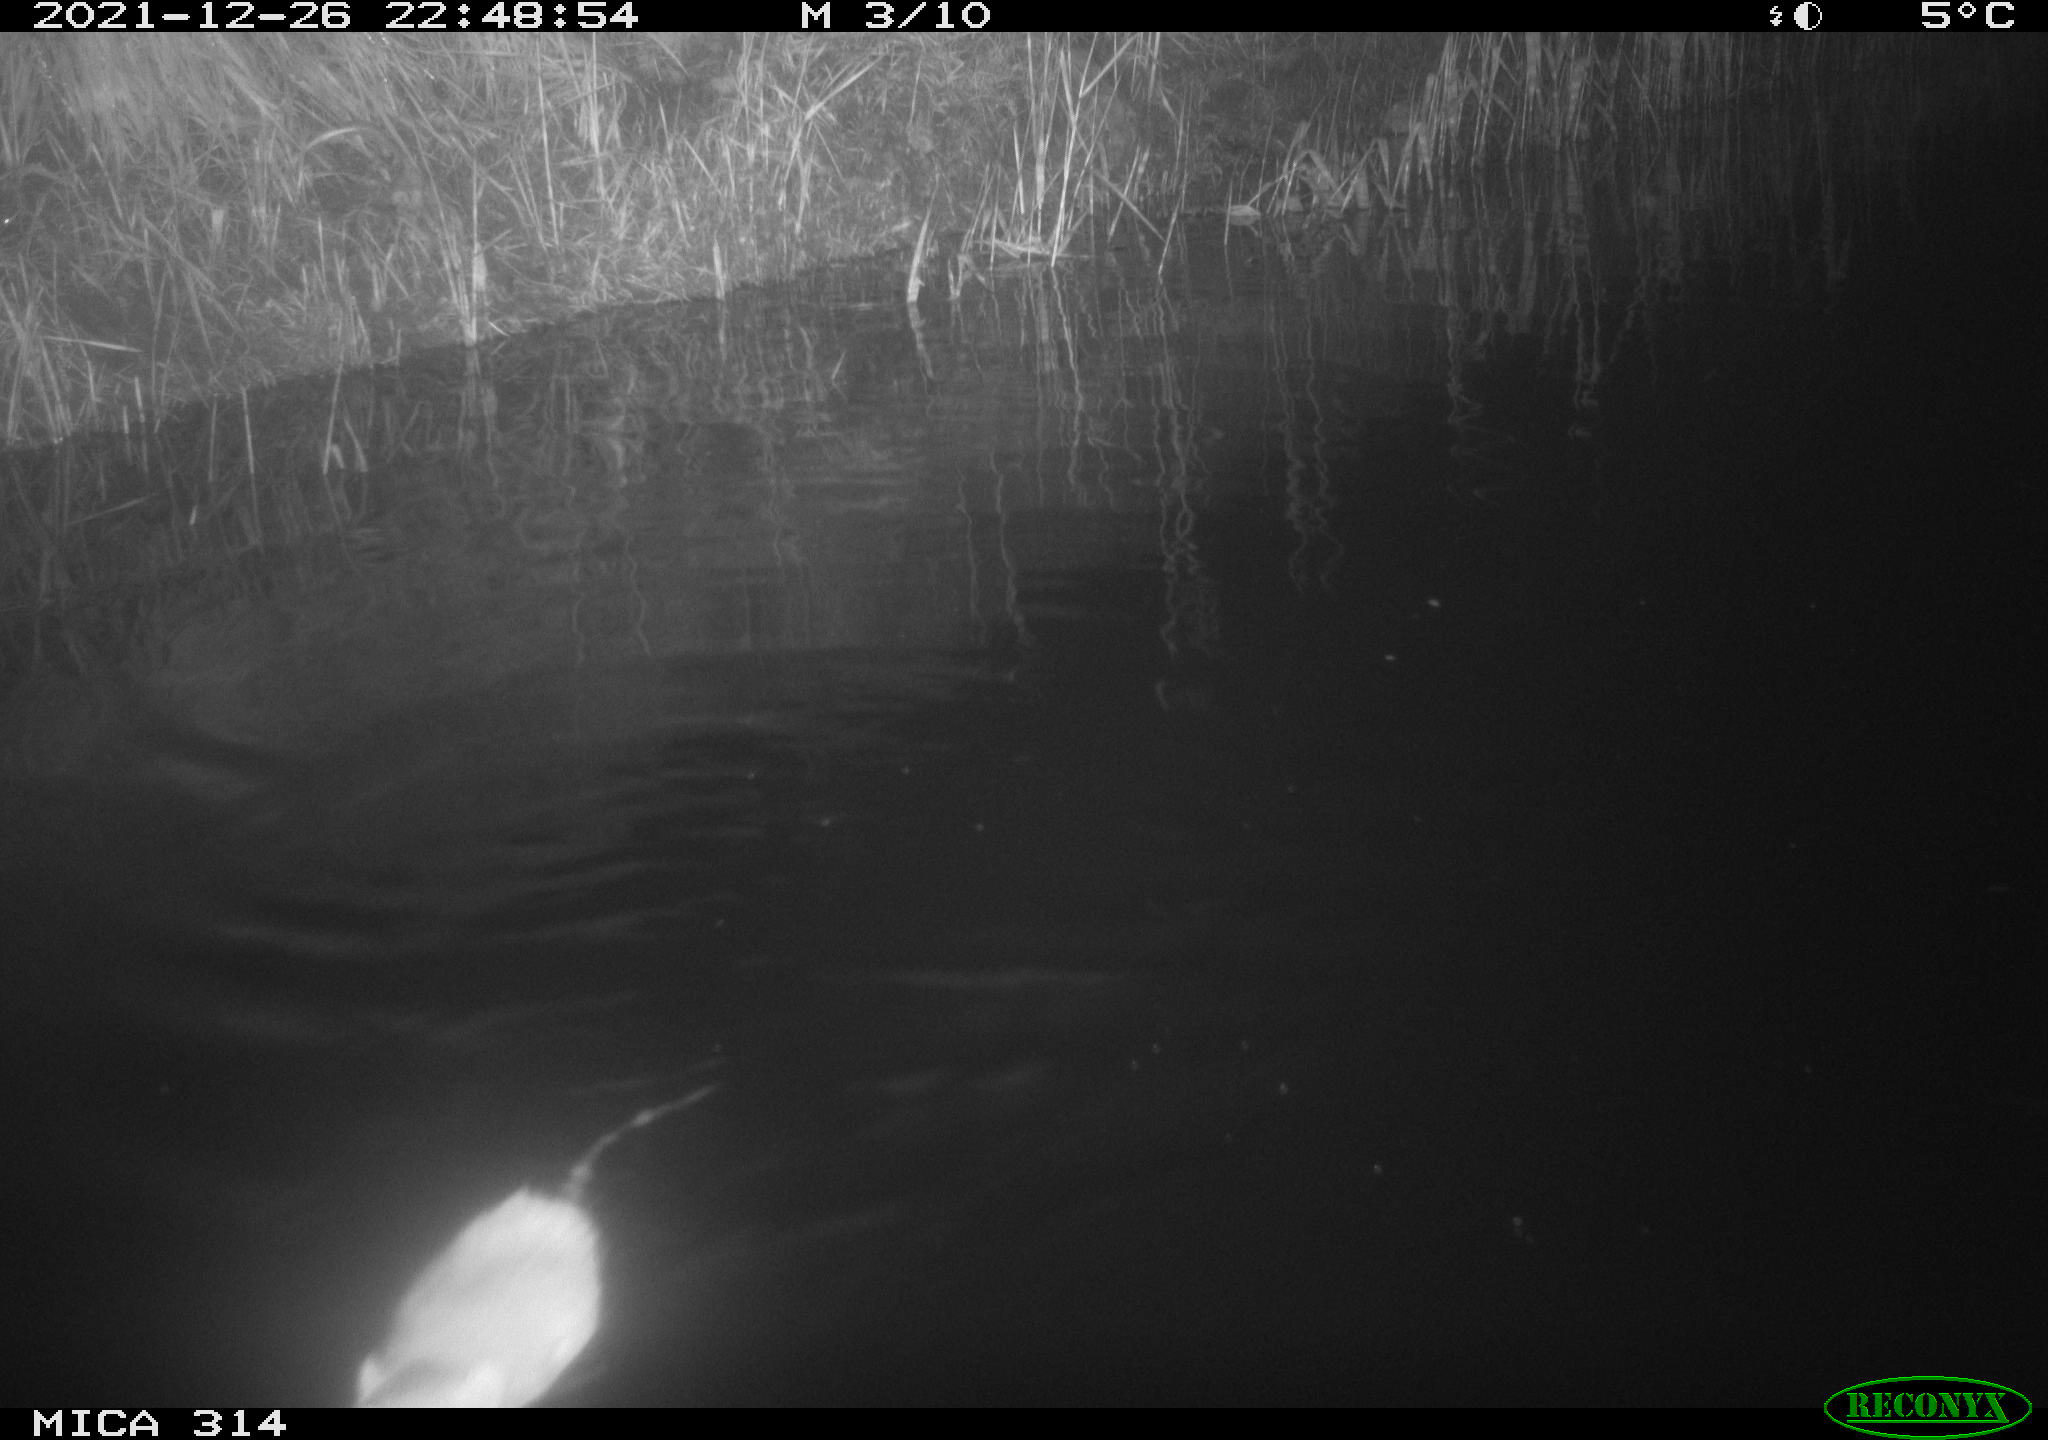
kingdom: Animalia
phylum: Chordata
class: Mammalia
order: Rodentia
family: Muridae
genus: Rattus
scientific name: Rattus norvegicus
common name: Brown rat
